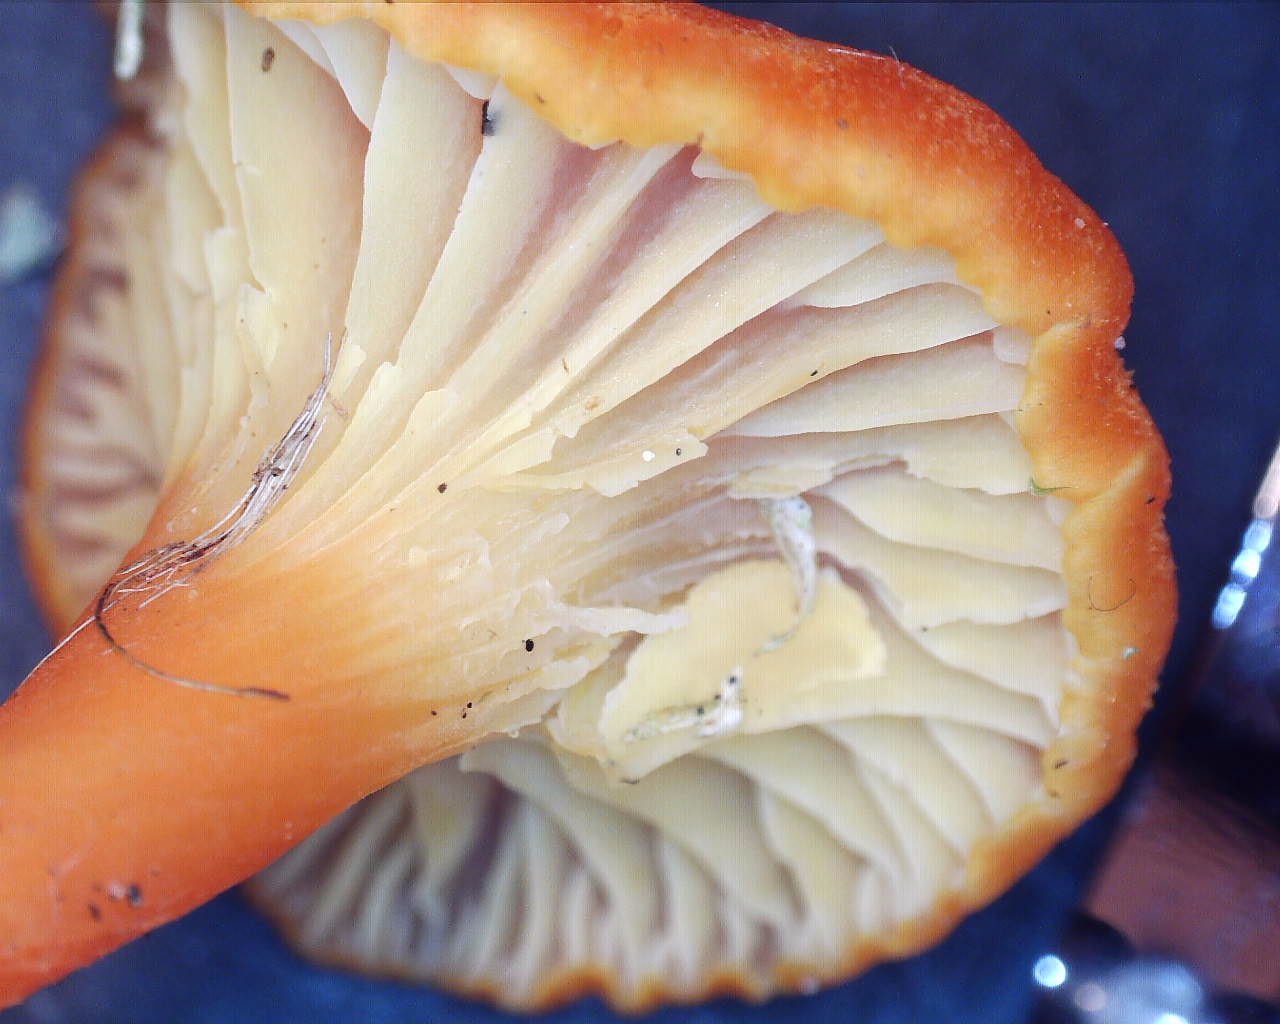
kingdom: Fungi
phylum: Basidiomycota
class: Agaricomycetes
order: Agaricales
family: Hygrophoraceae
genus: Hygrocybe
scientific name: Hygrocybe cantharellus
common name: kantarel-vokshat
